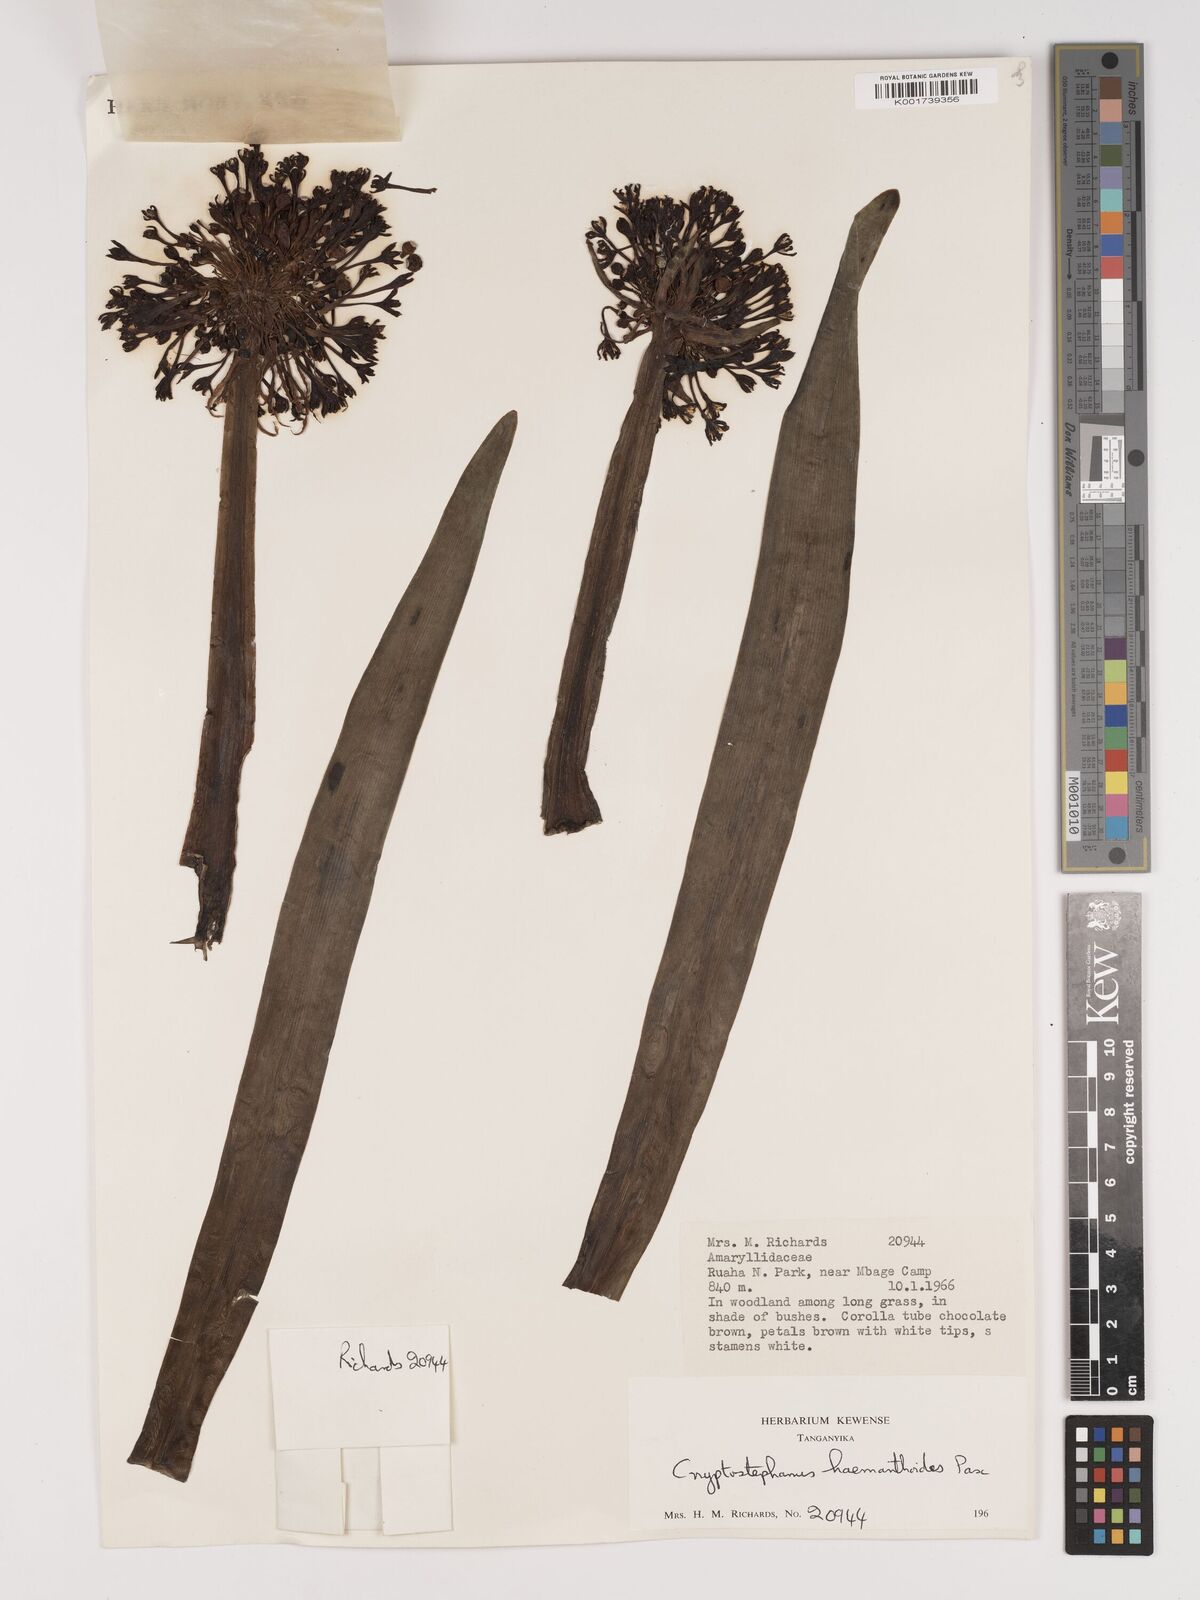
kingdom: Plantae
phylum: Tracheophyta
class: Liliopsida
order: Asparagales
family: Amaryllidaceae
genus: Cryptostephanus
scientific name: Cryptostephanus haemanthoides
